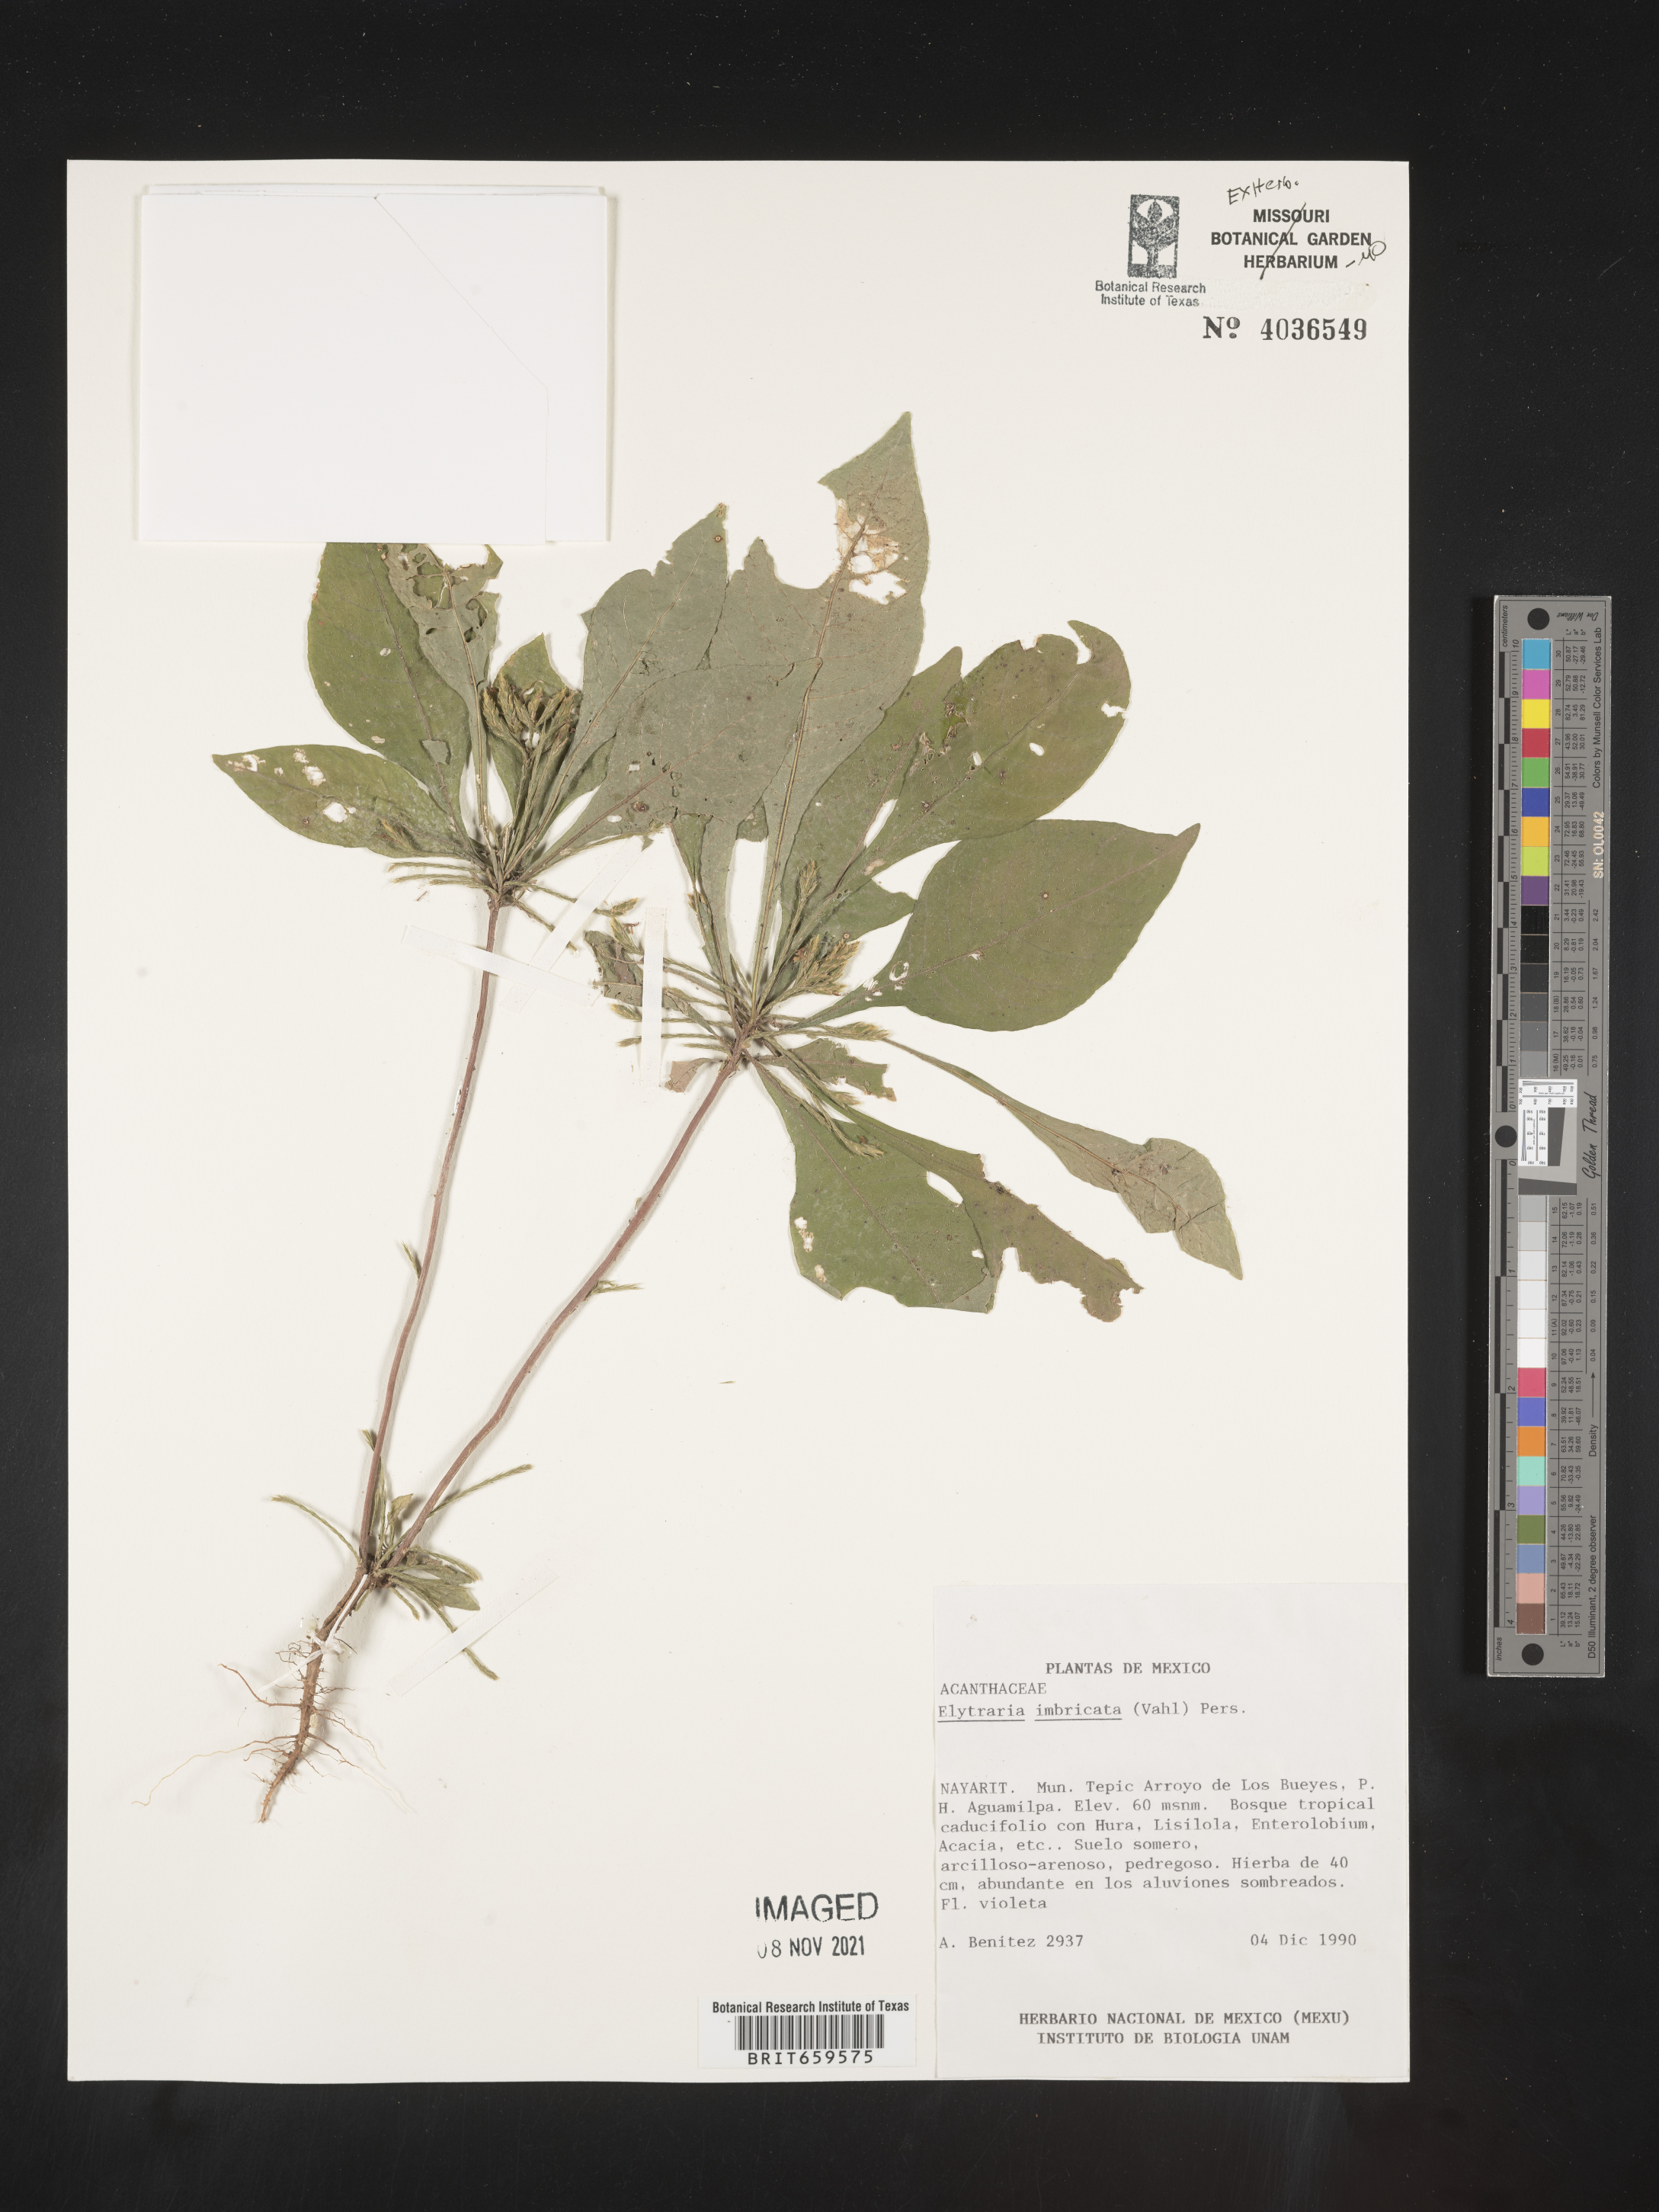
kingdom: Plantae
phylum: Tracheophyta
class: Magnoliopsida
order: Lamiales
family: Acanthaceae
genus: Elytraria
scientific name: Elytraria imbricata
